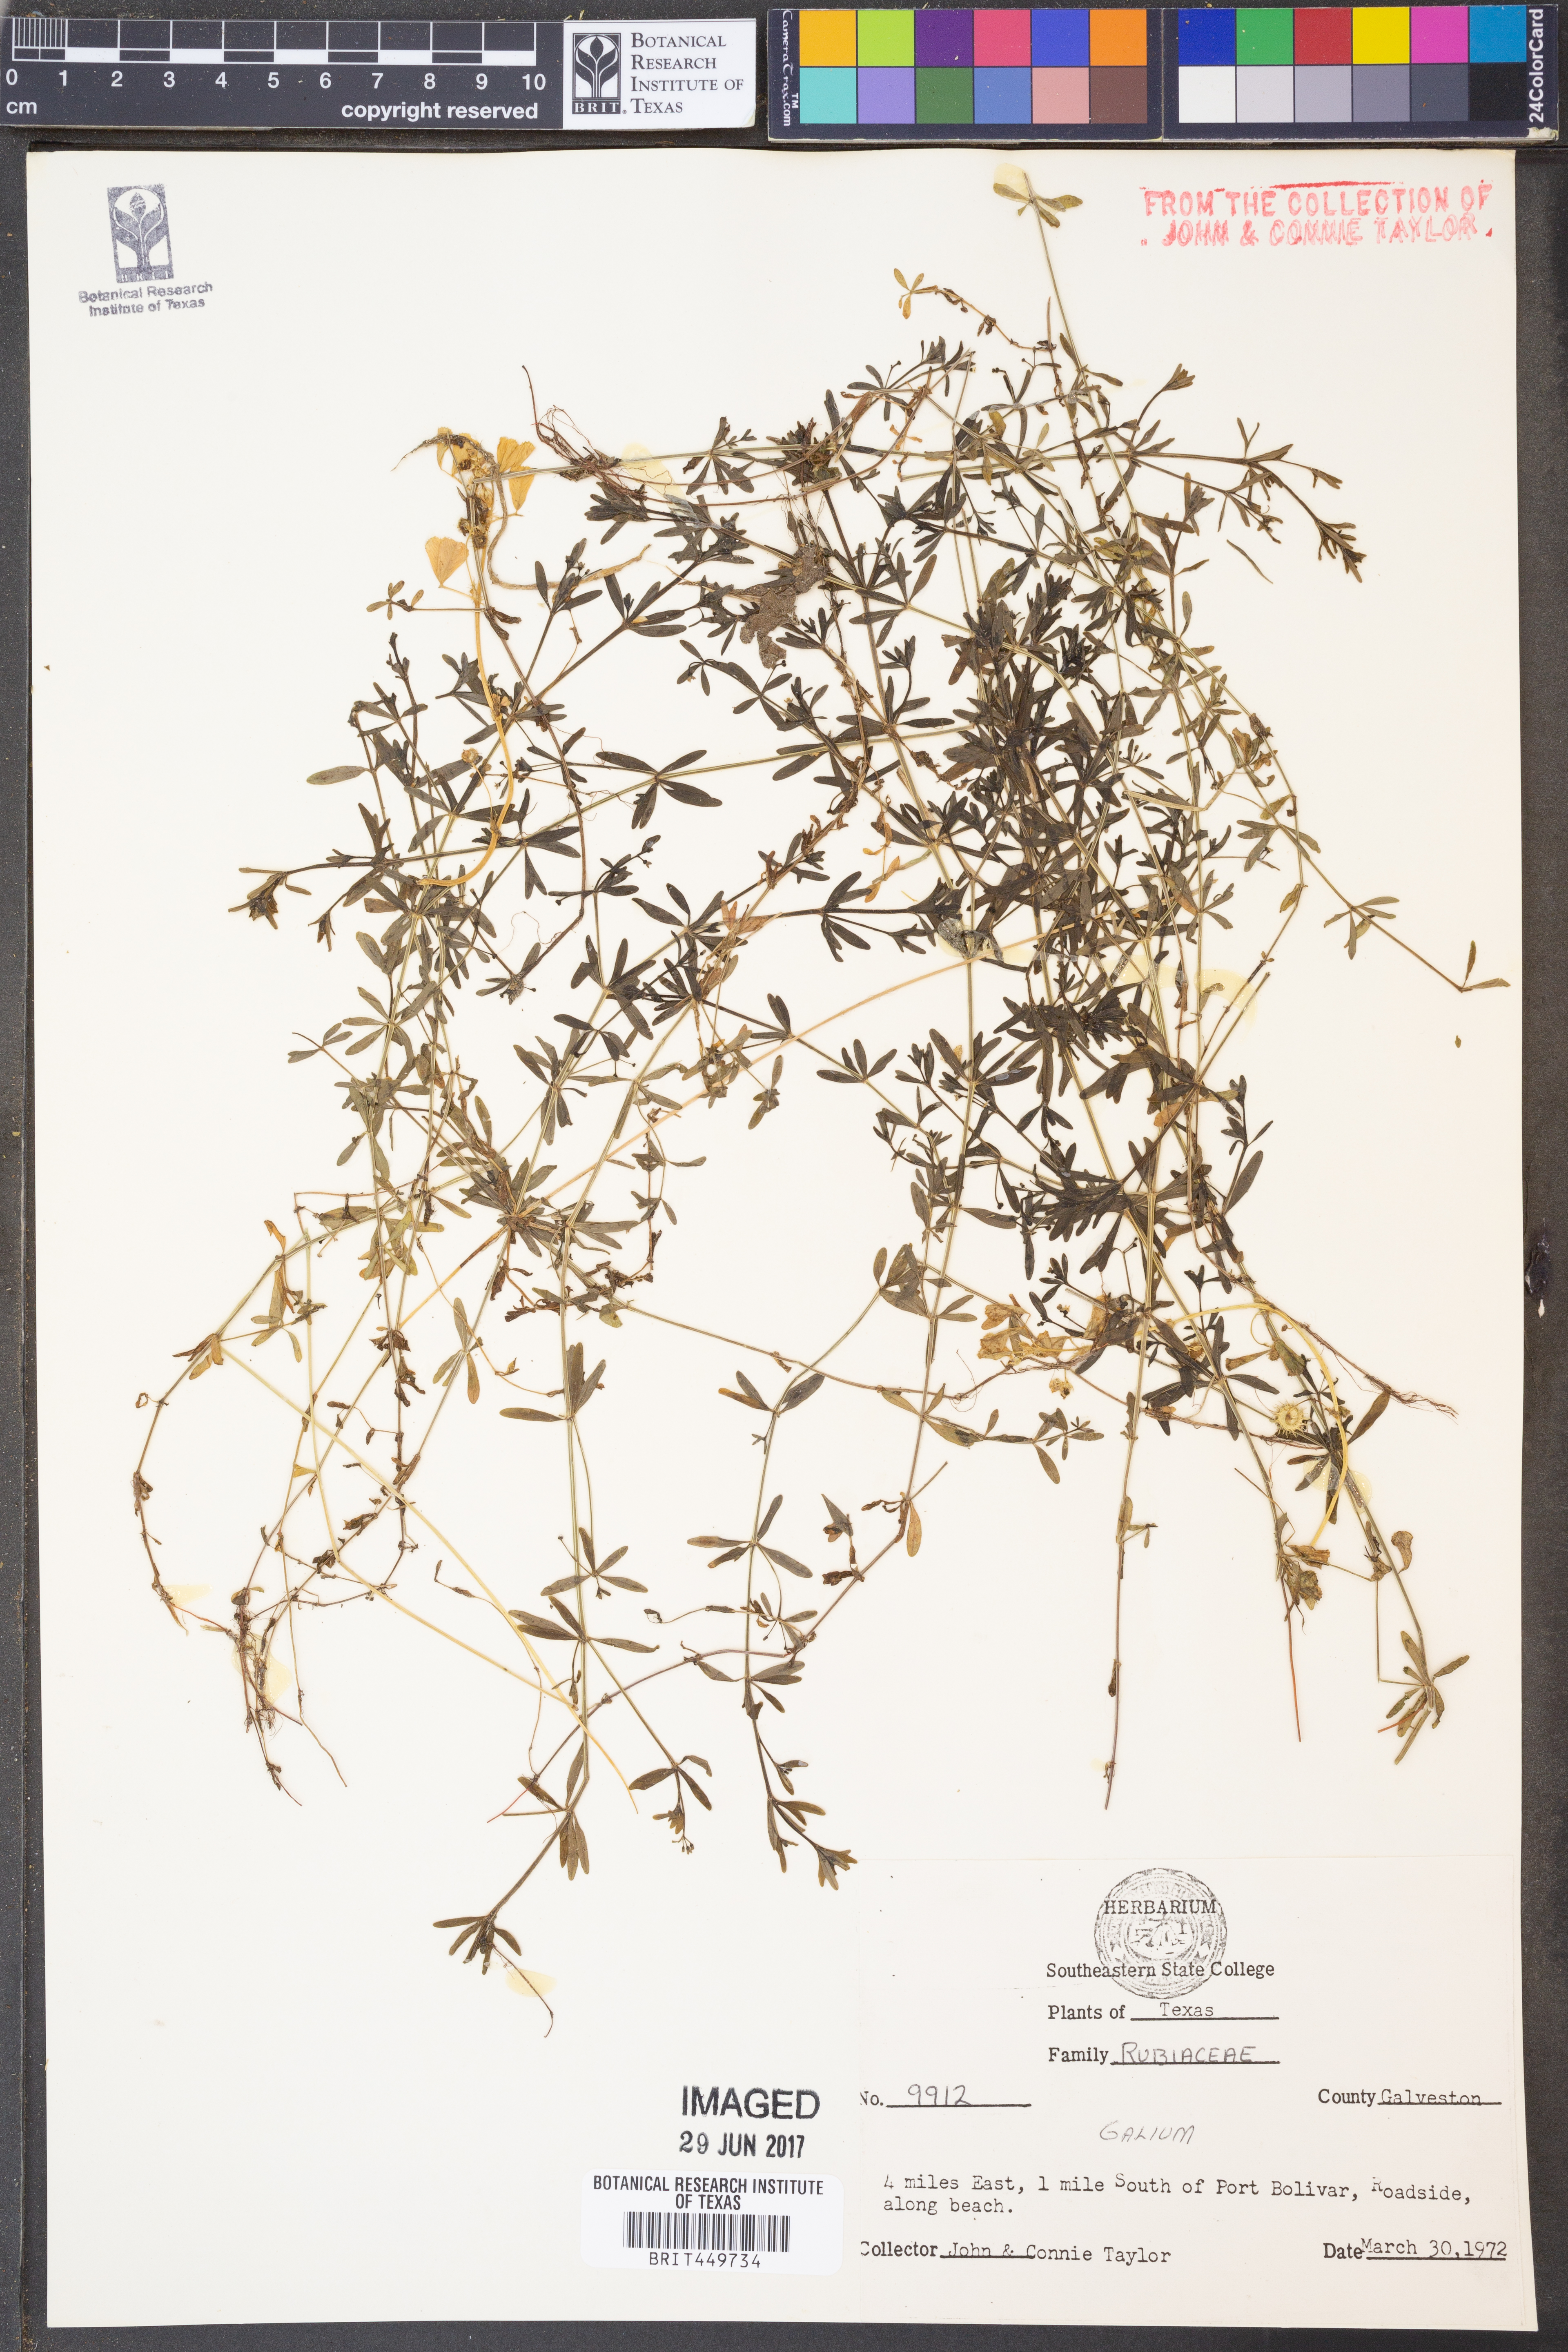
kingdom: Plantae
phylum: Tracheophyta
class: Magnoliopsida
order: Gentianales
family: Rubiaceae
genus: Galium
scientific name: Galium
